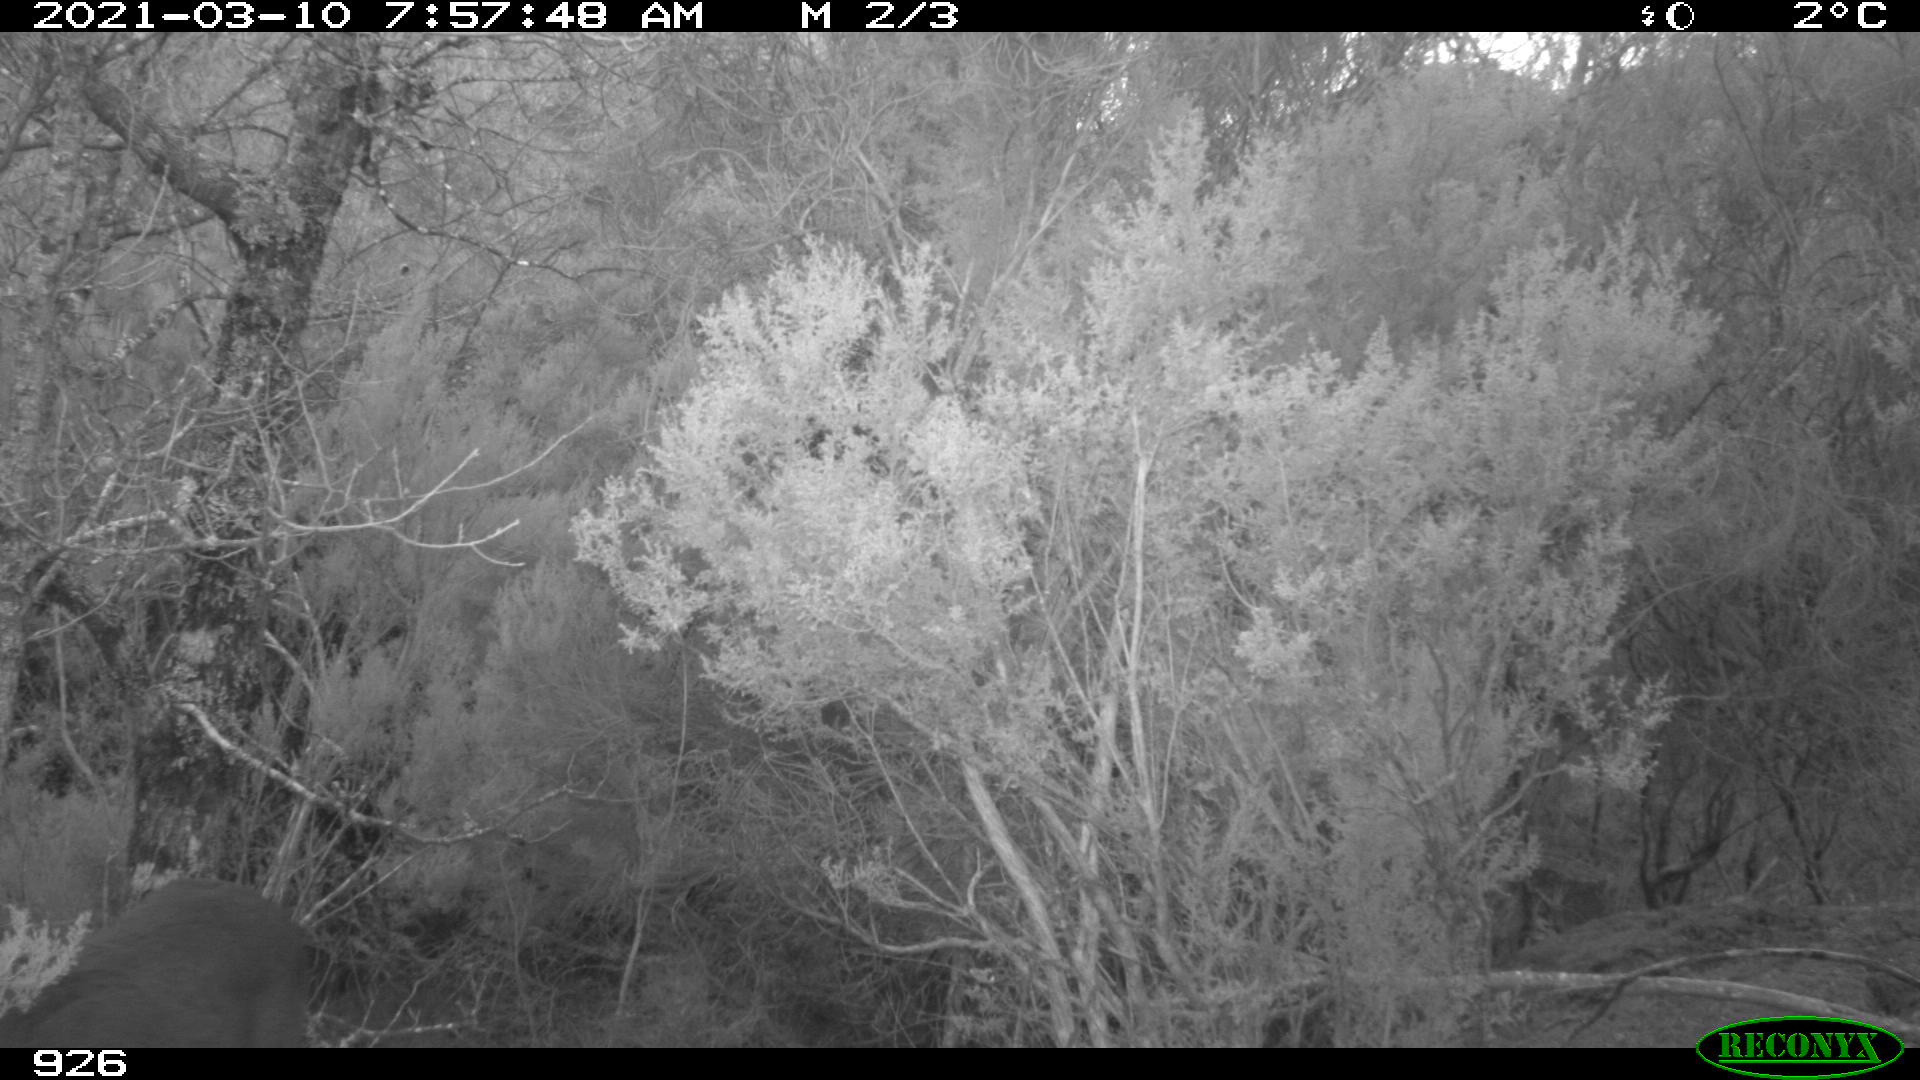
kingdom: Animalia
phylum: Chordata
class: Mammalia
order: Artiodactyla
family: Cervidae
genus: Capreolus
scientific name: Capreolus capreolus
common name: Western roe deer
